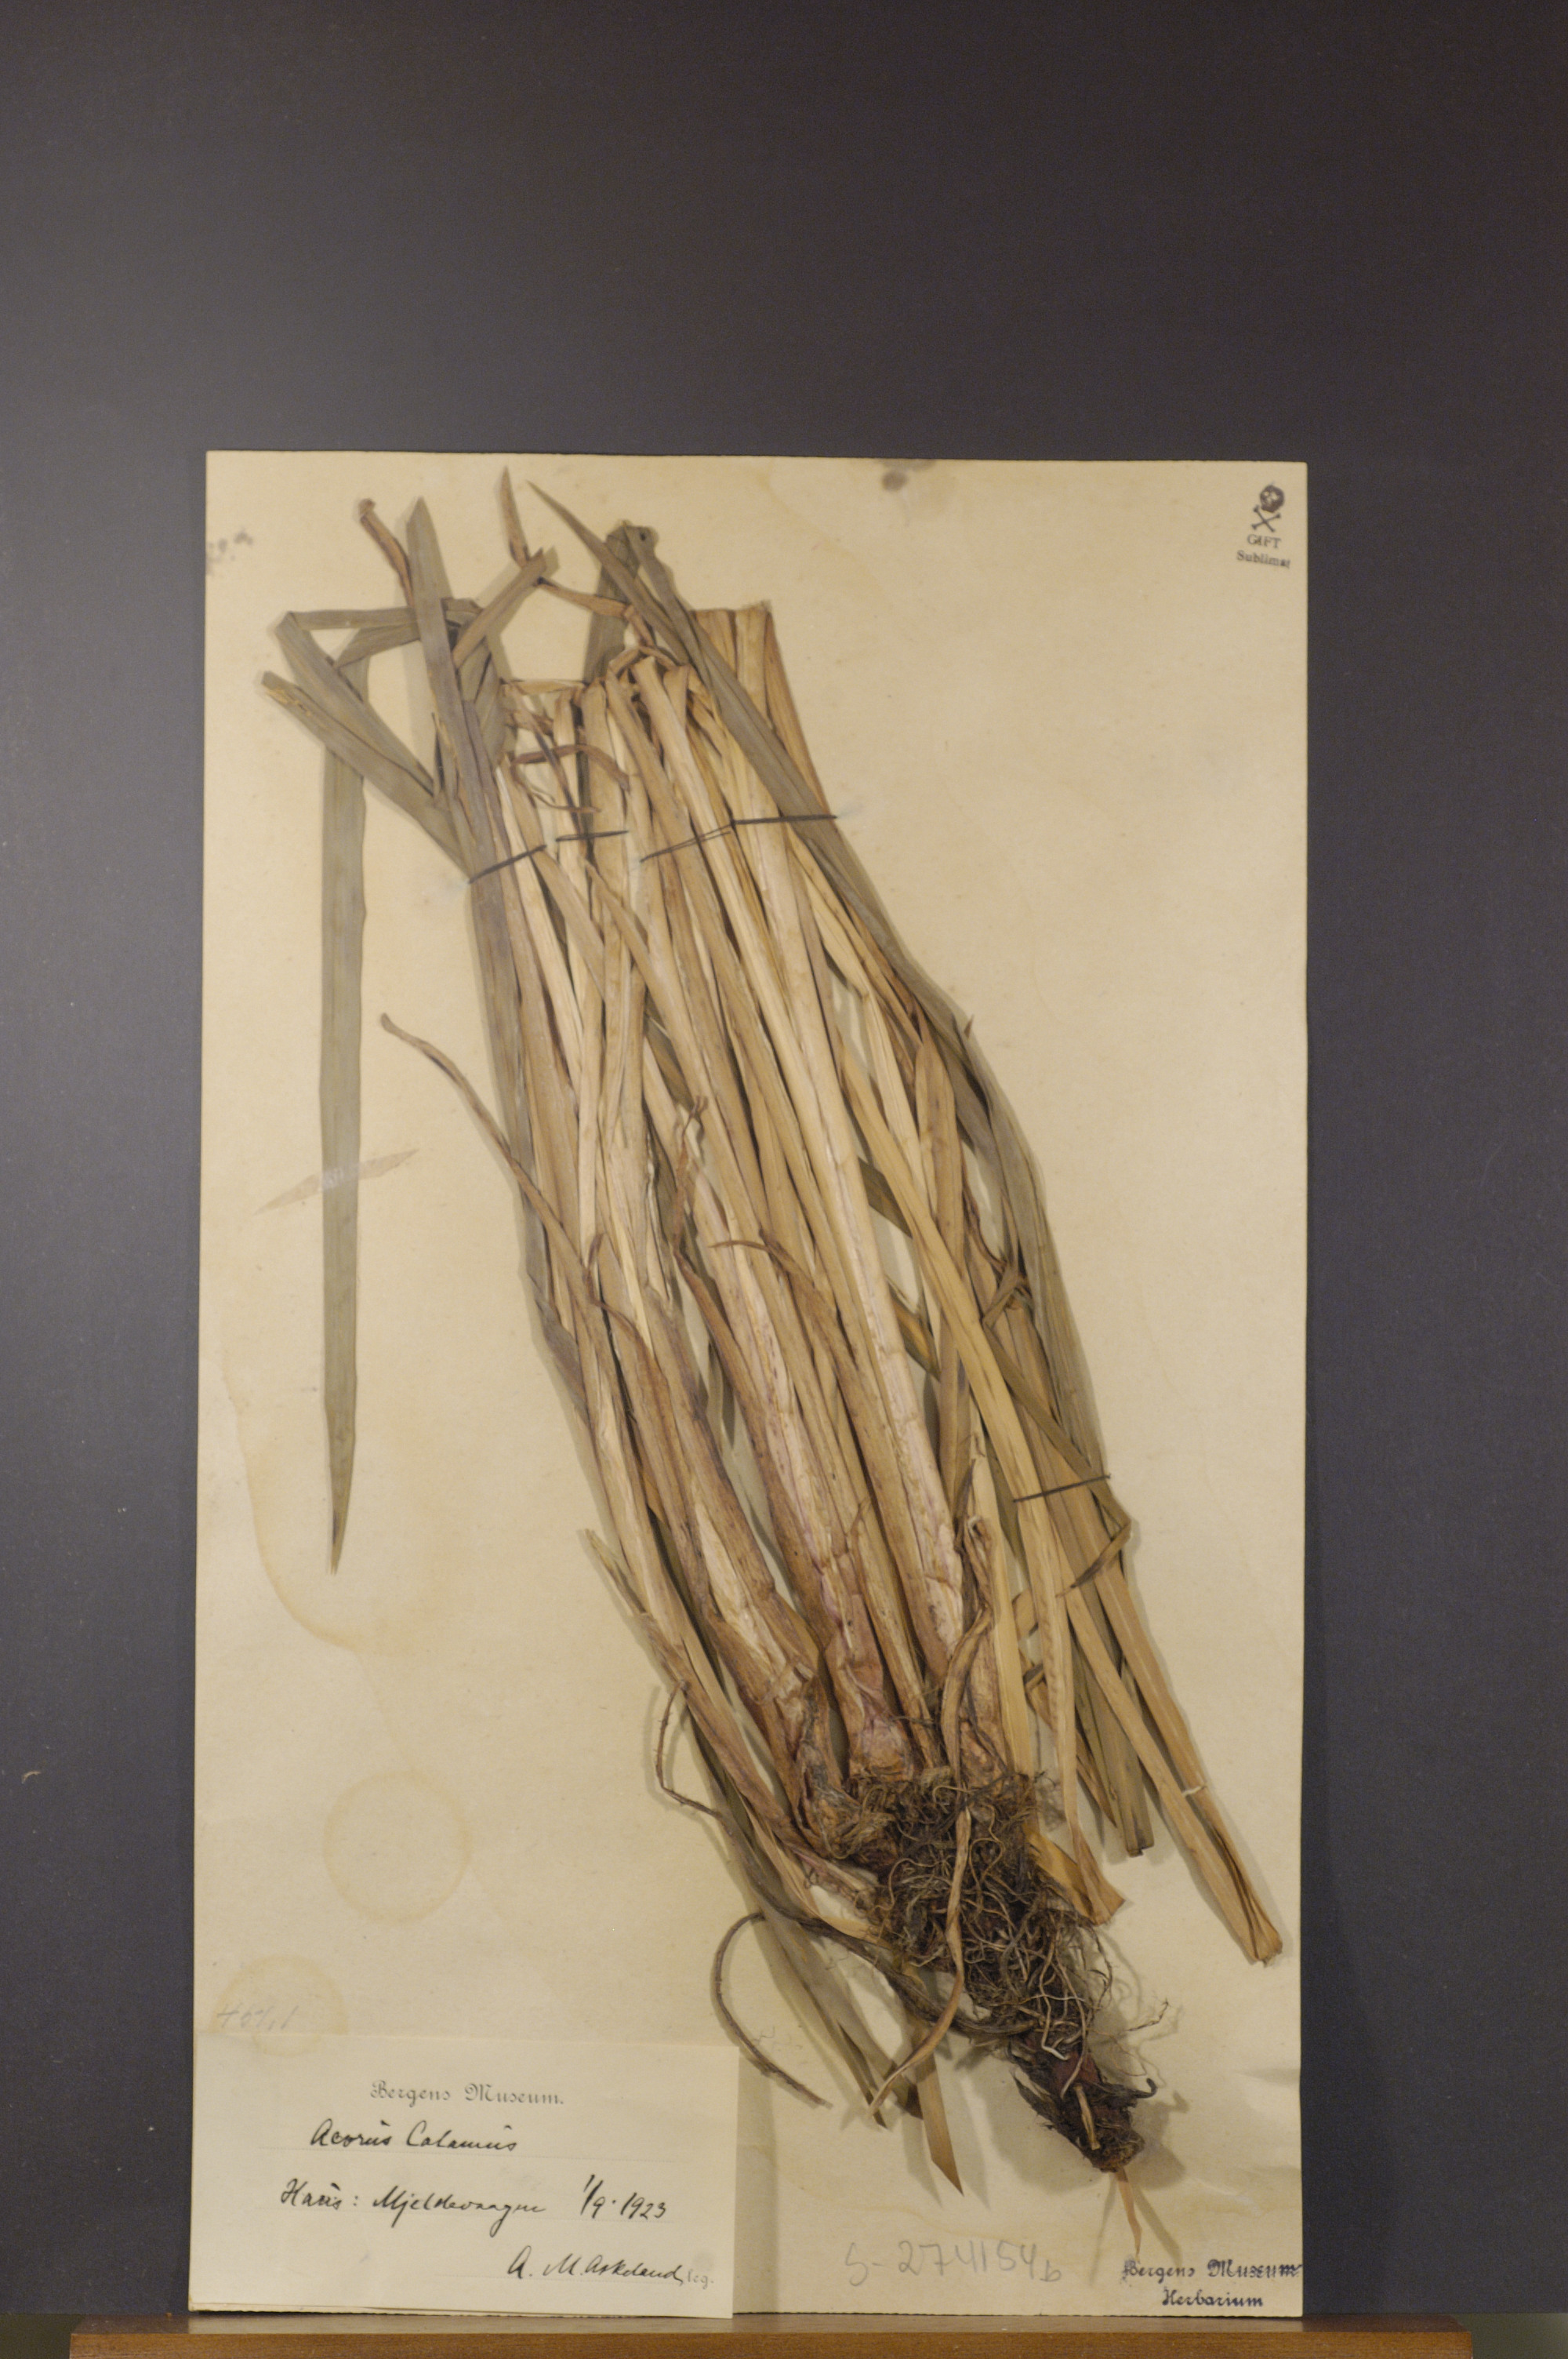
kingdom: Plantae
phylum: Tracheophyta
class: Liliopsida
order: Acorales
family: Acoraceae
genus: Acorus
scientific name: Acorus calamus
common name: Sweet-flag
